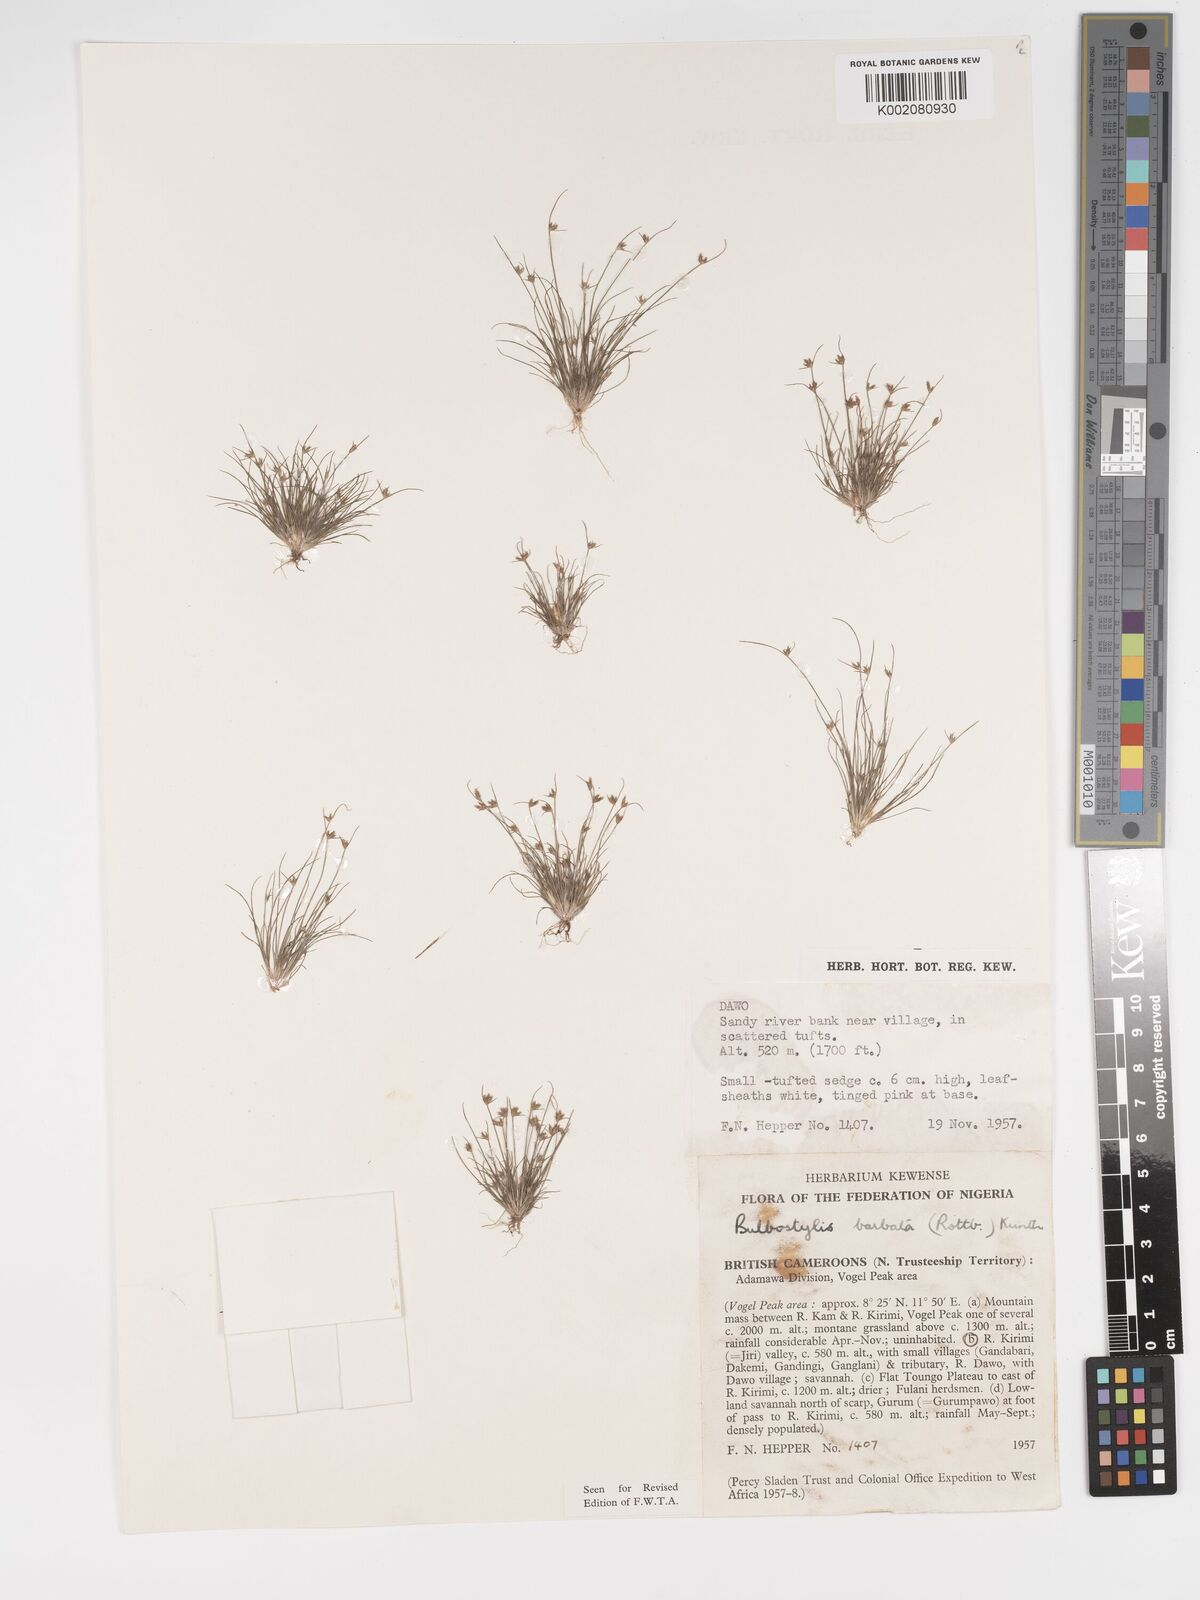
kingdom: Plantae
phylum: Tracheophyta
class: Liliopsida
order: Poales
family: Cyperaceae
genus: Bulbostylis
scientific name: Bulbostylis barbata
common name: Watergrass
